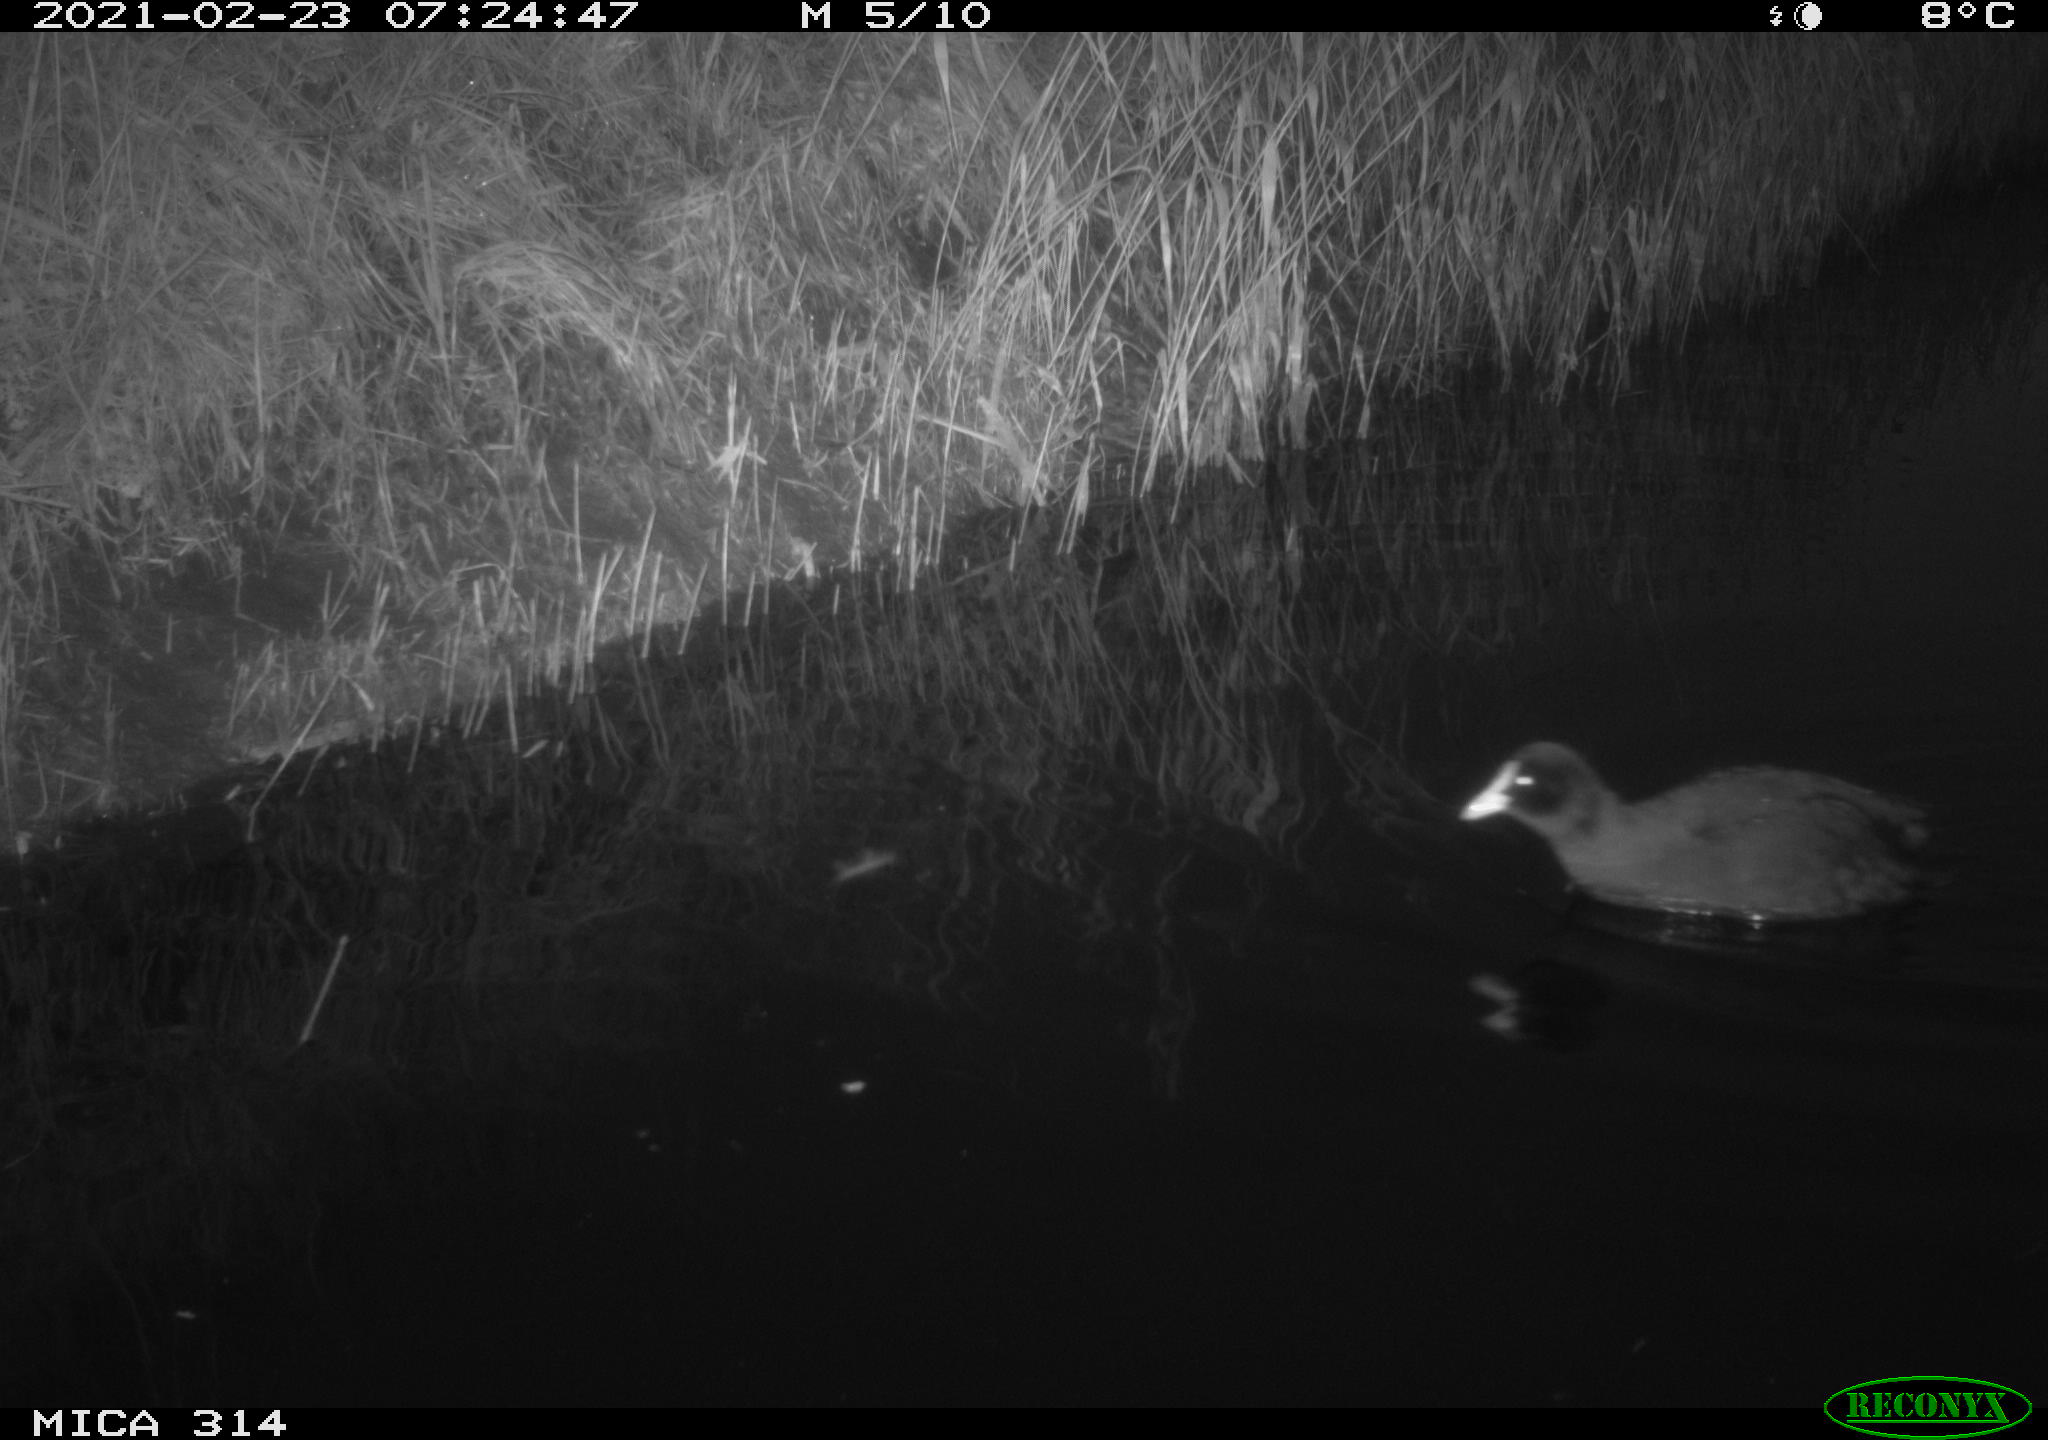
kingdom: Animalia
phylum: Chordata
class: Aves
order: Gruiformes
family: Rallidae
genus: Fulica
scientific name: Fulica atra
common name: Eurasian coot
